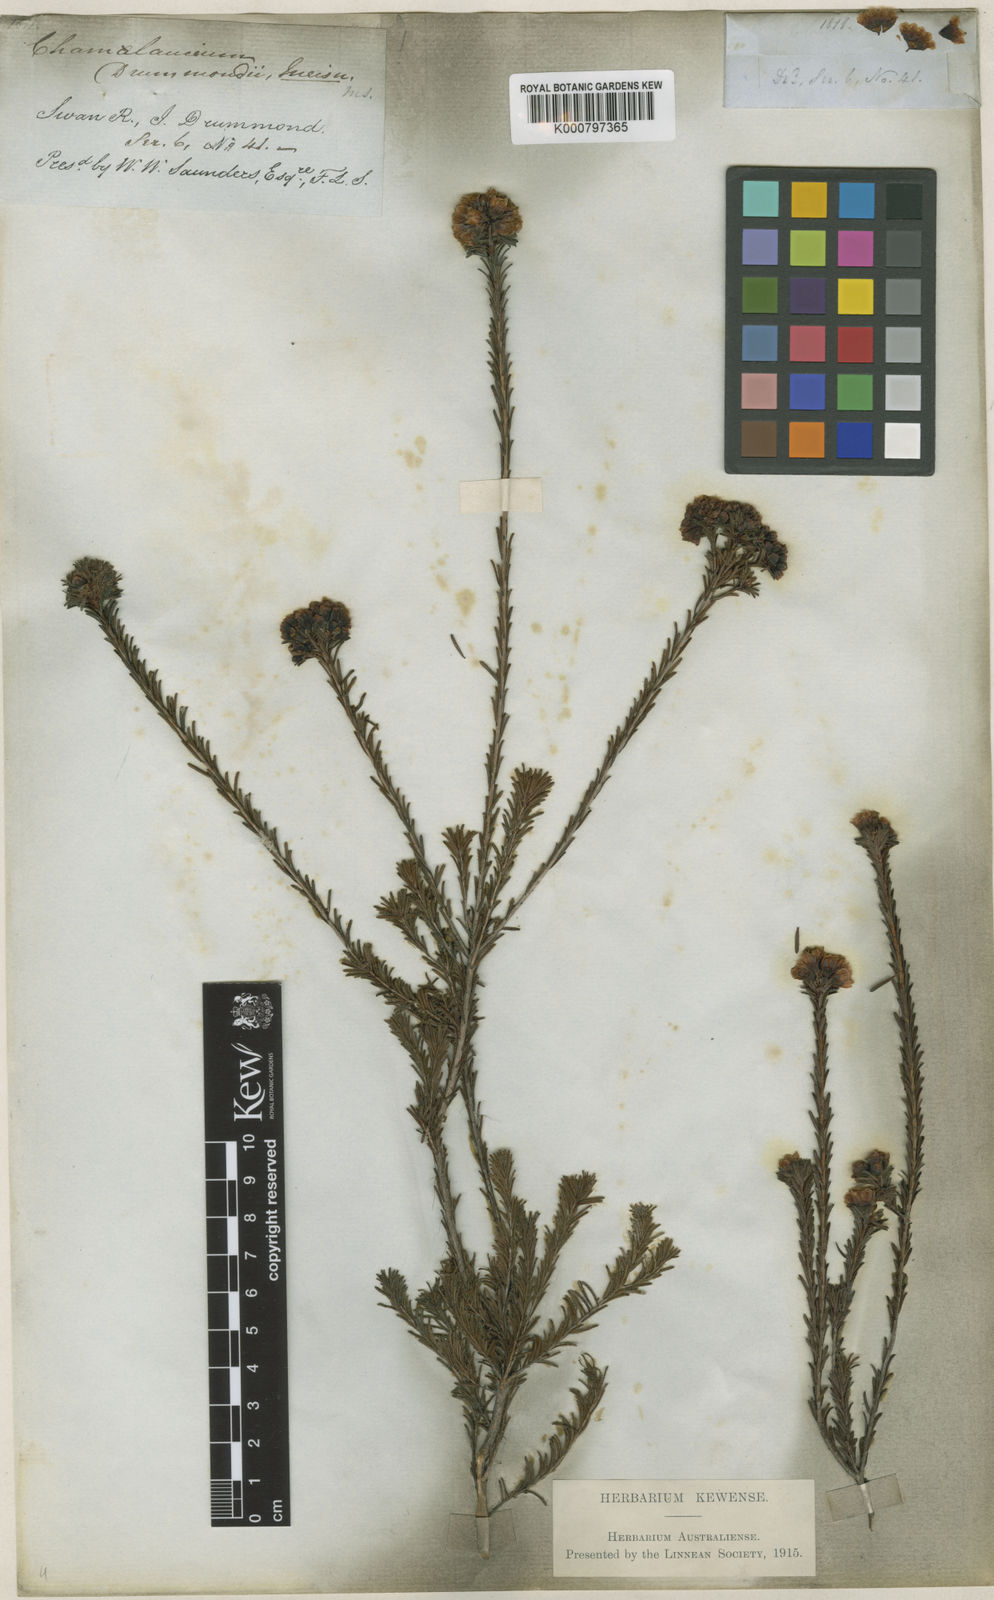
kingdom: Plantae
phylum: Tracheophyta
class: Magnoliopsida
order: Myrtales
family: Myrtaceae
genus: Chamelaucium
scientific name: Chamelaucium drummondii
